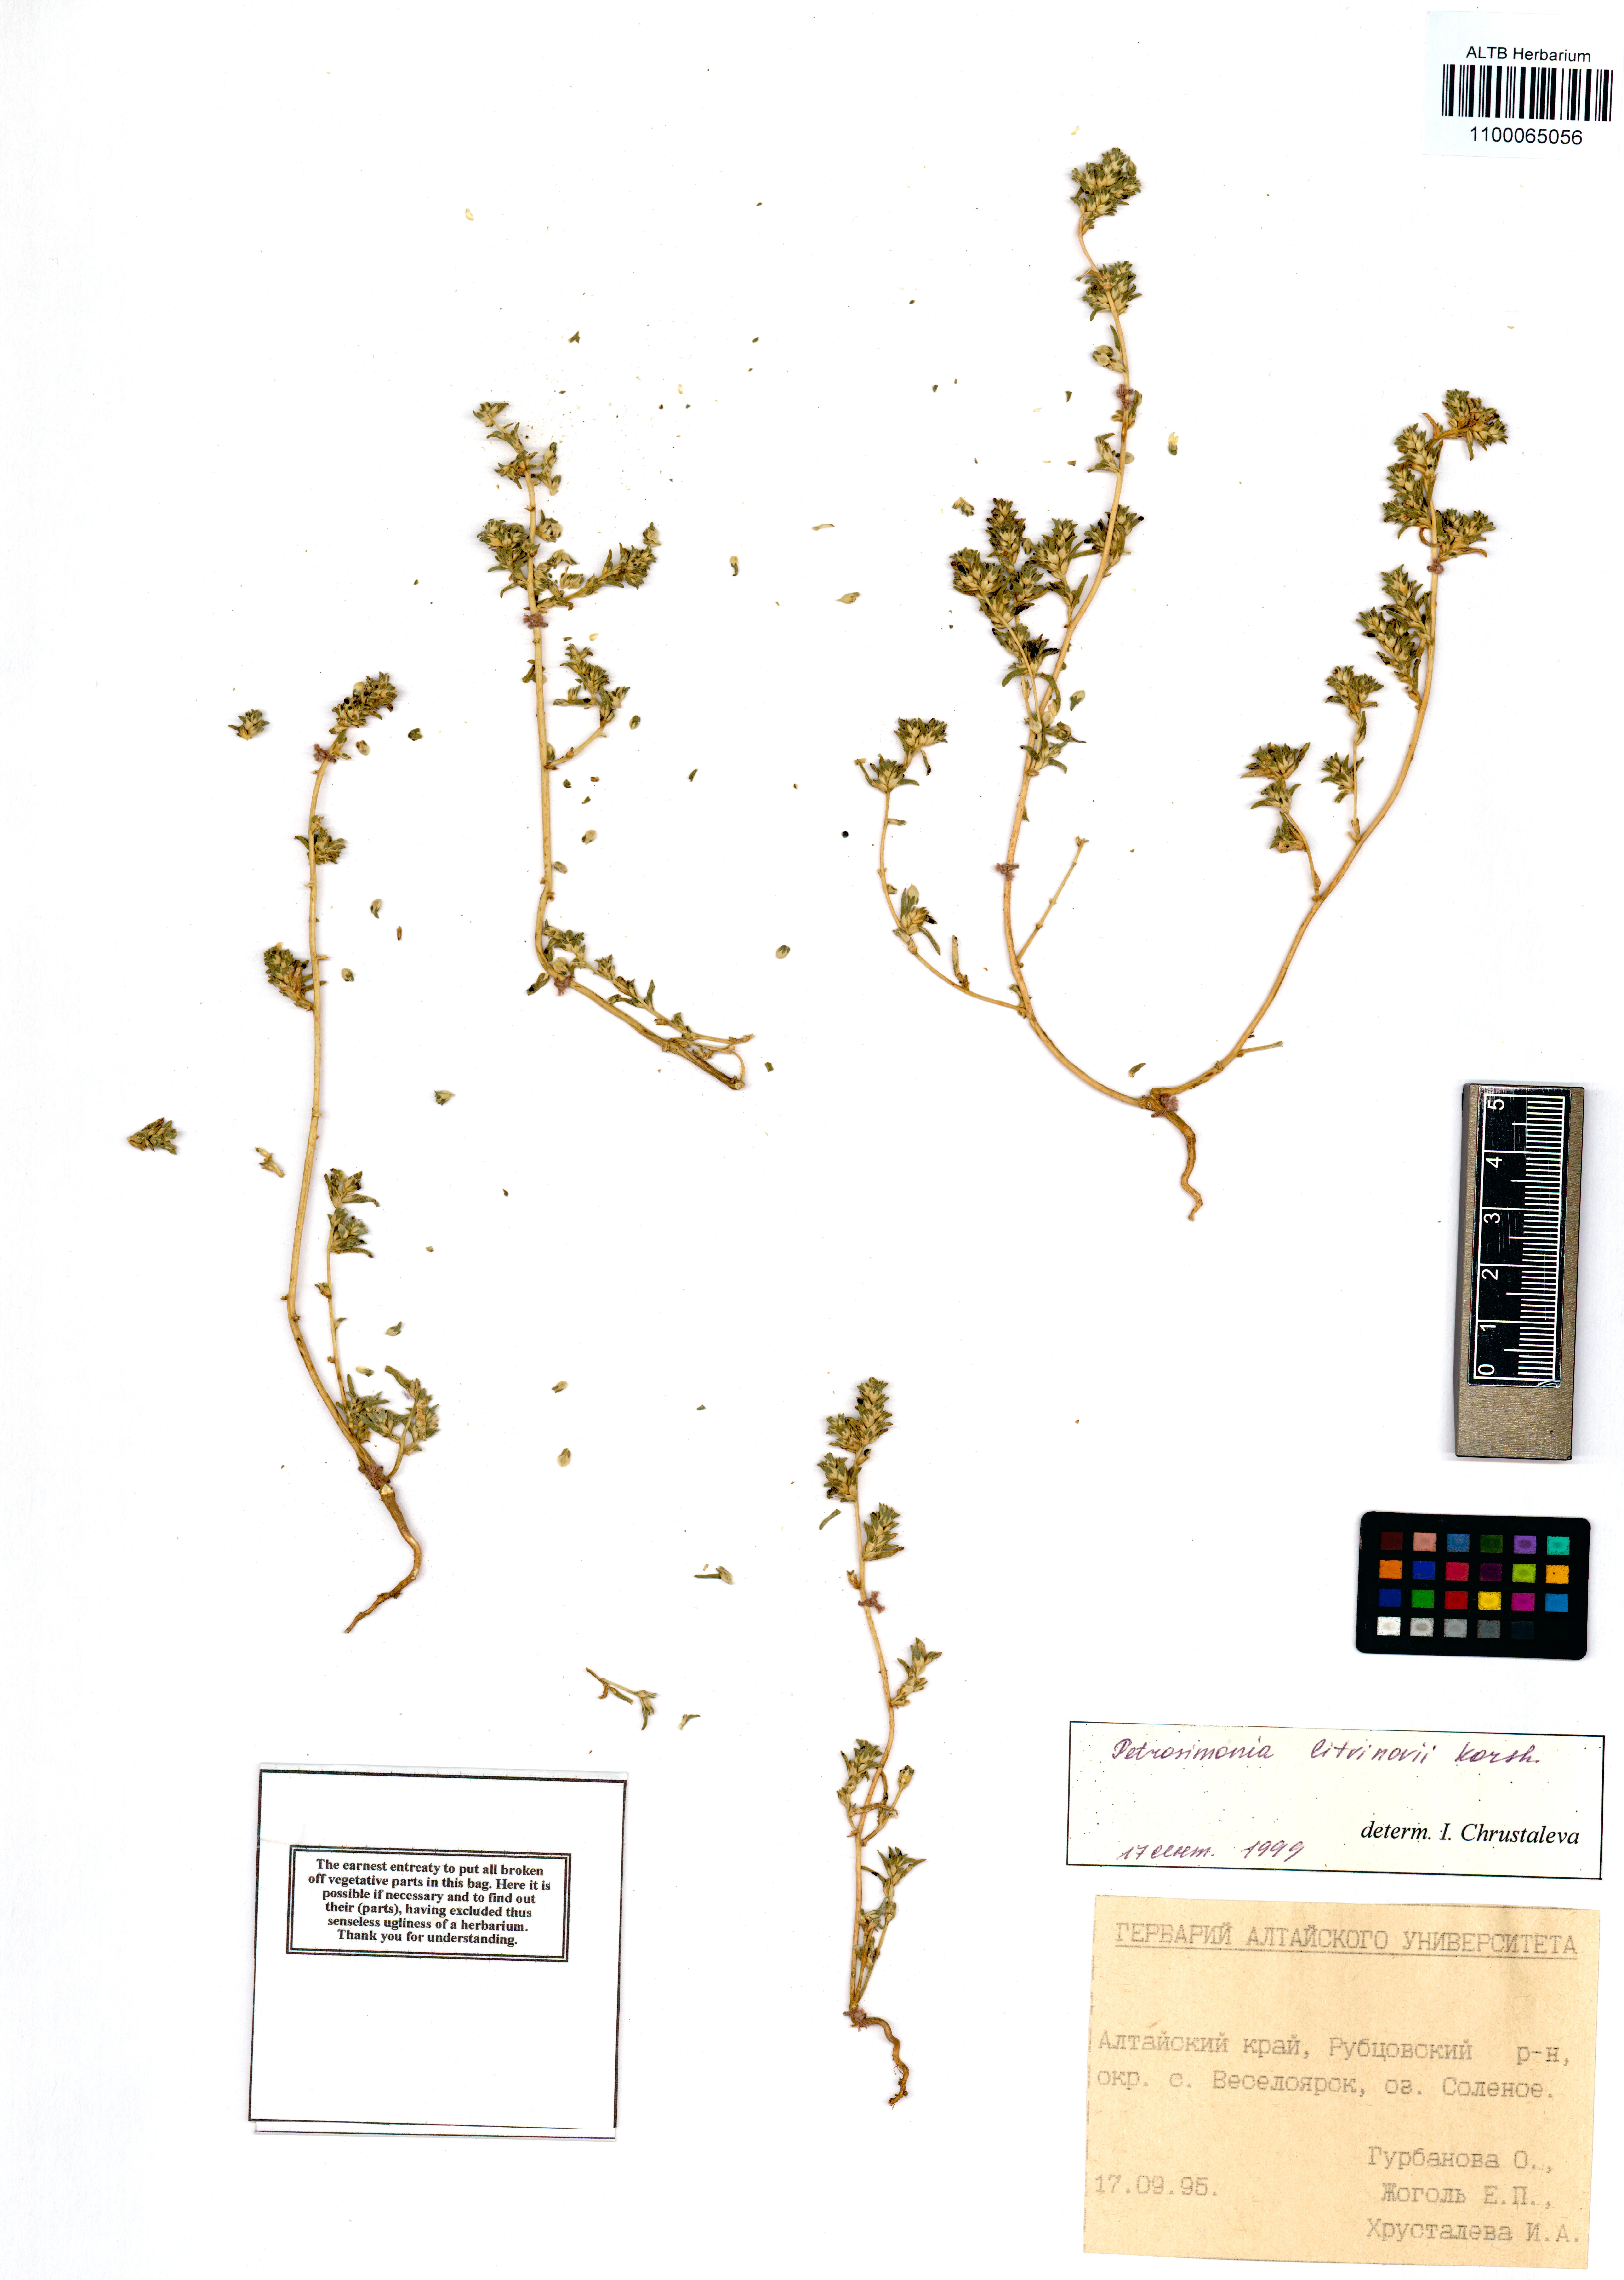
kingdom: Plantae
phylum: Tracheophyta
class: Magnoliopsida
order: Caryophyllales
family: Amaranthaceae
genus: Petrosimonia
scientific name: Petrosimonia litvinowi
